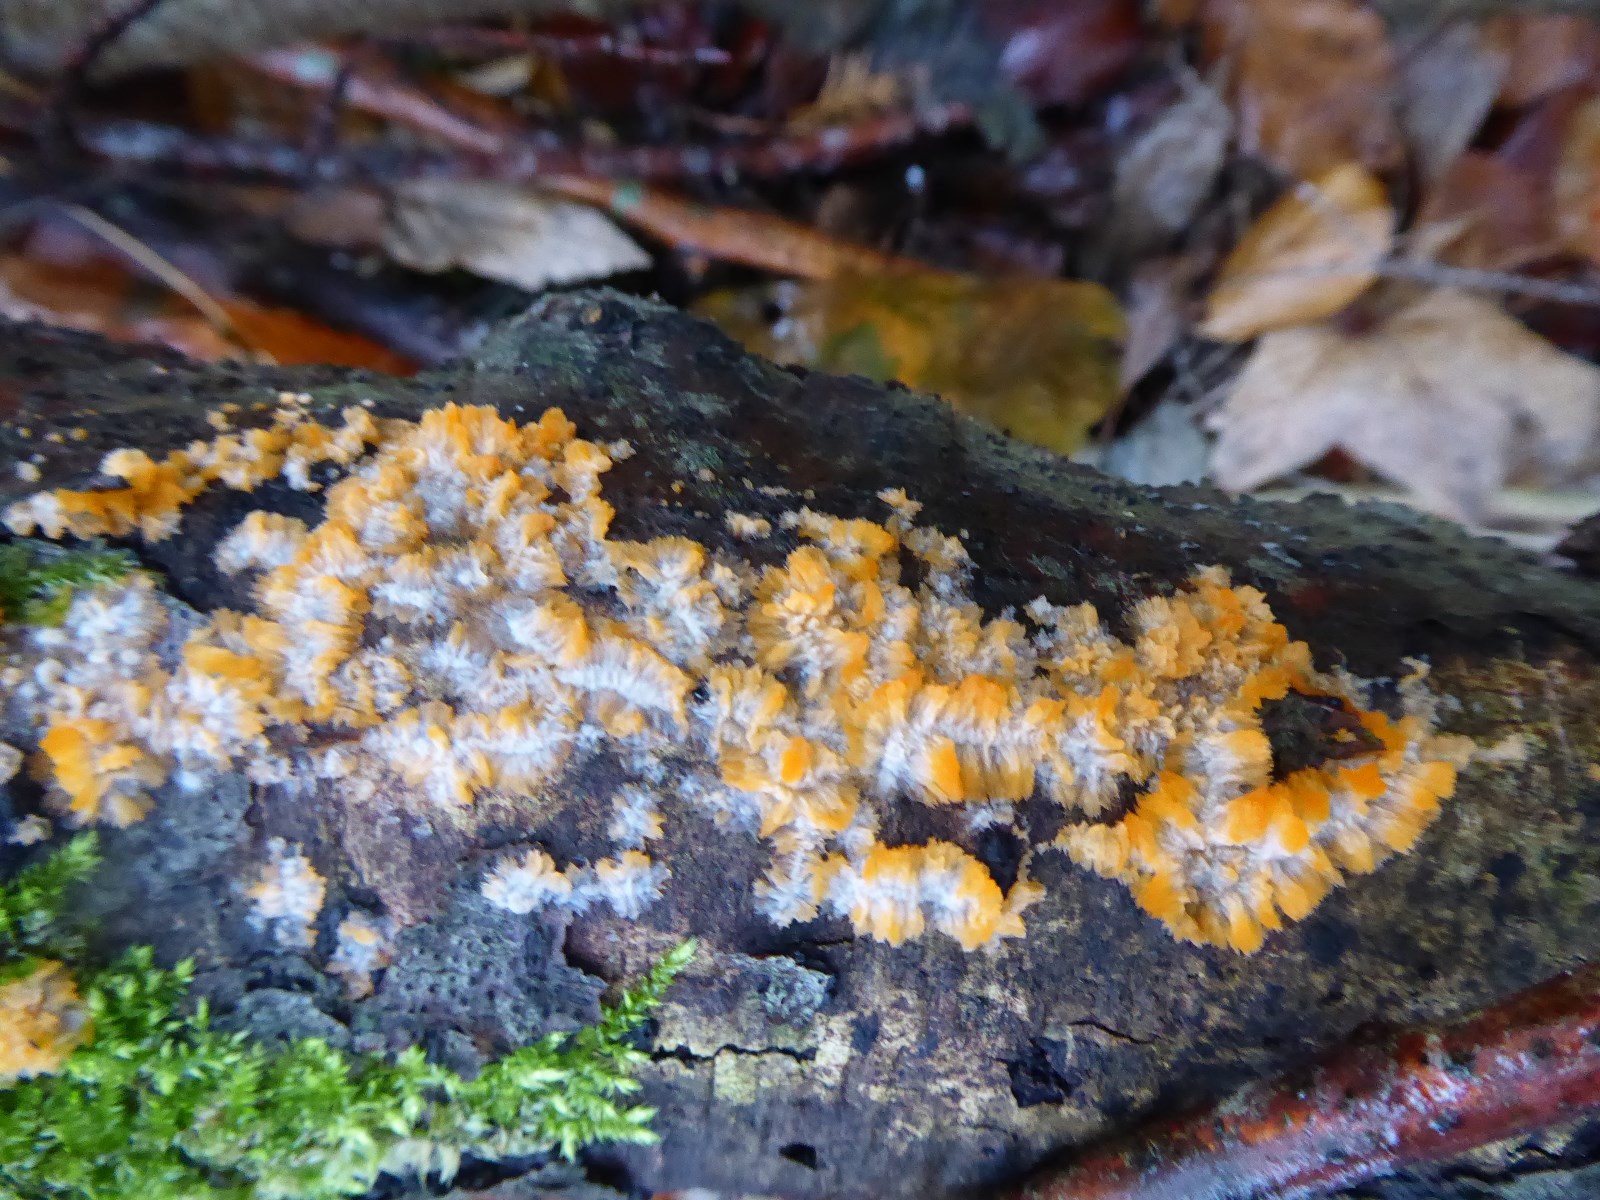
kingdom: Fungi
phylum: Basidiomycota
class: Agaricomycetes
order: Polyporales
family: Meruliaceae
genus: Phlebia
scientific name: Phlebia radiata
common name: stråle-åresvamp
